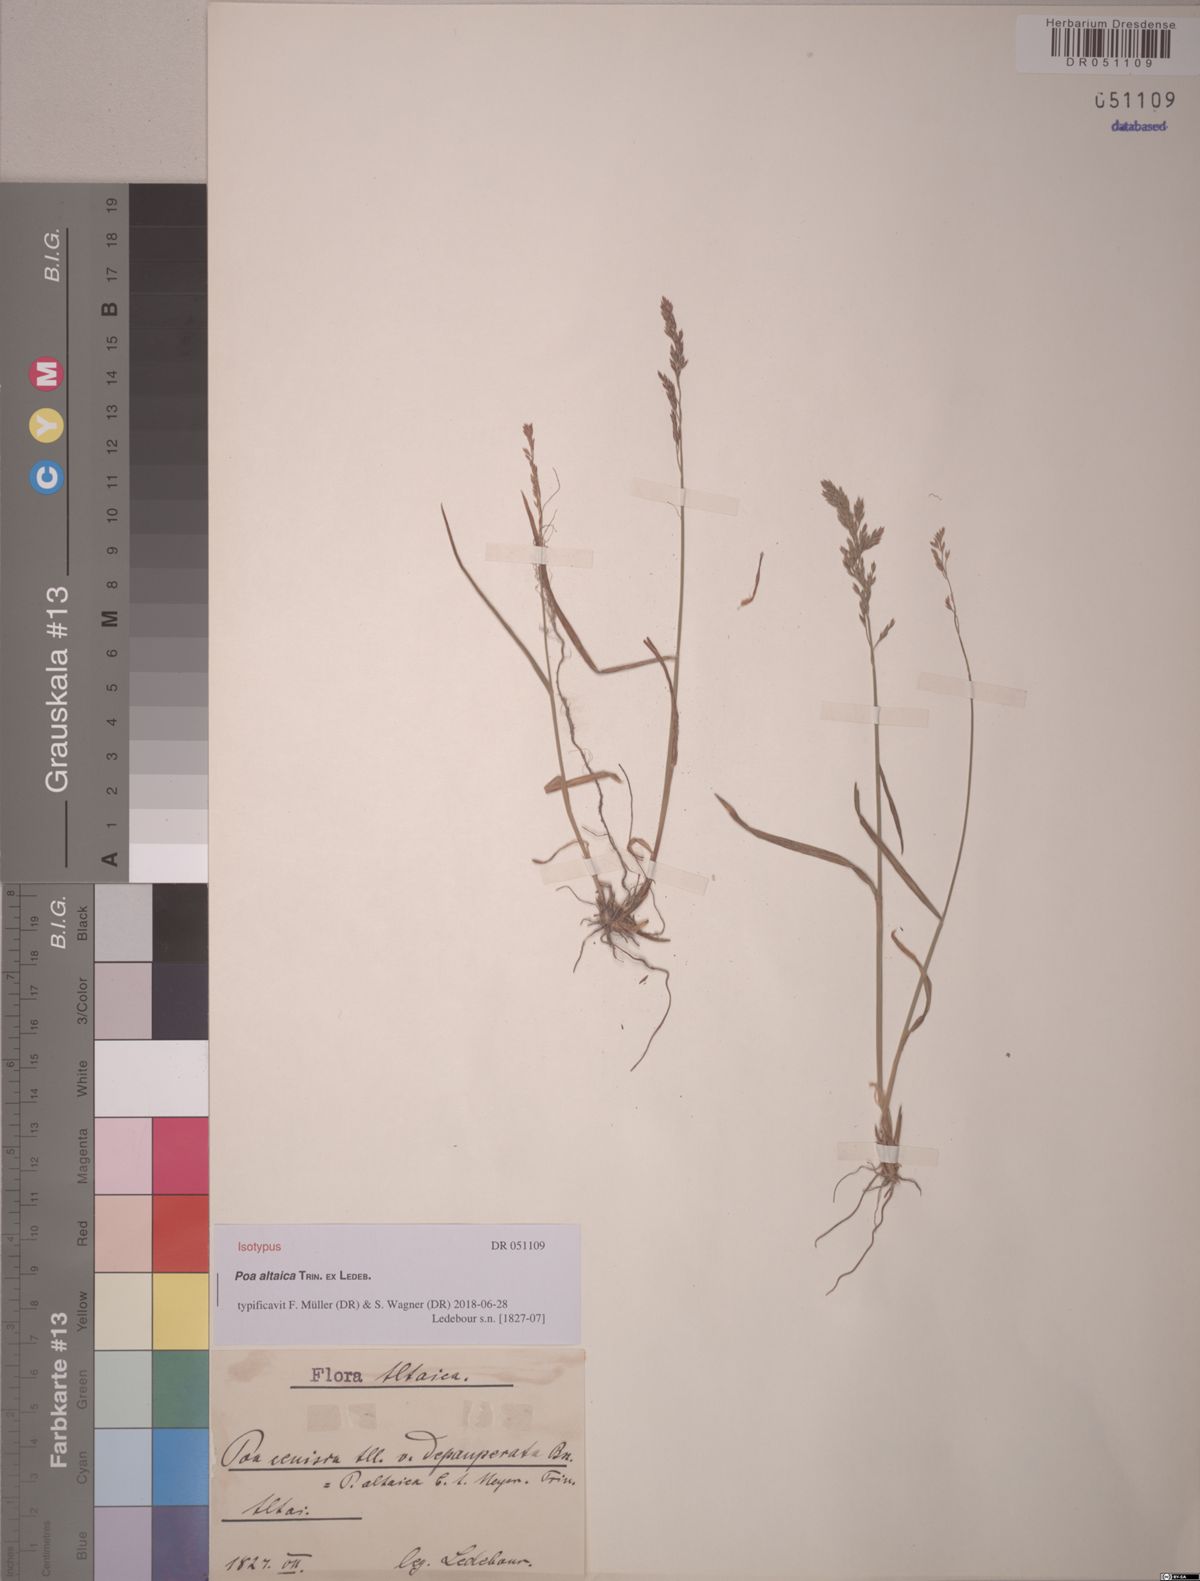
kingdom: Plantae
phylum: Tracheophyta
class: Liliopsida
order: Poales
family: Poaceae
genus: Poa
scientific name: Poa altaica
